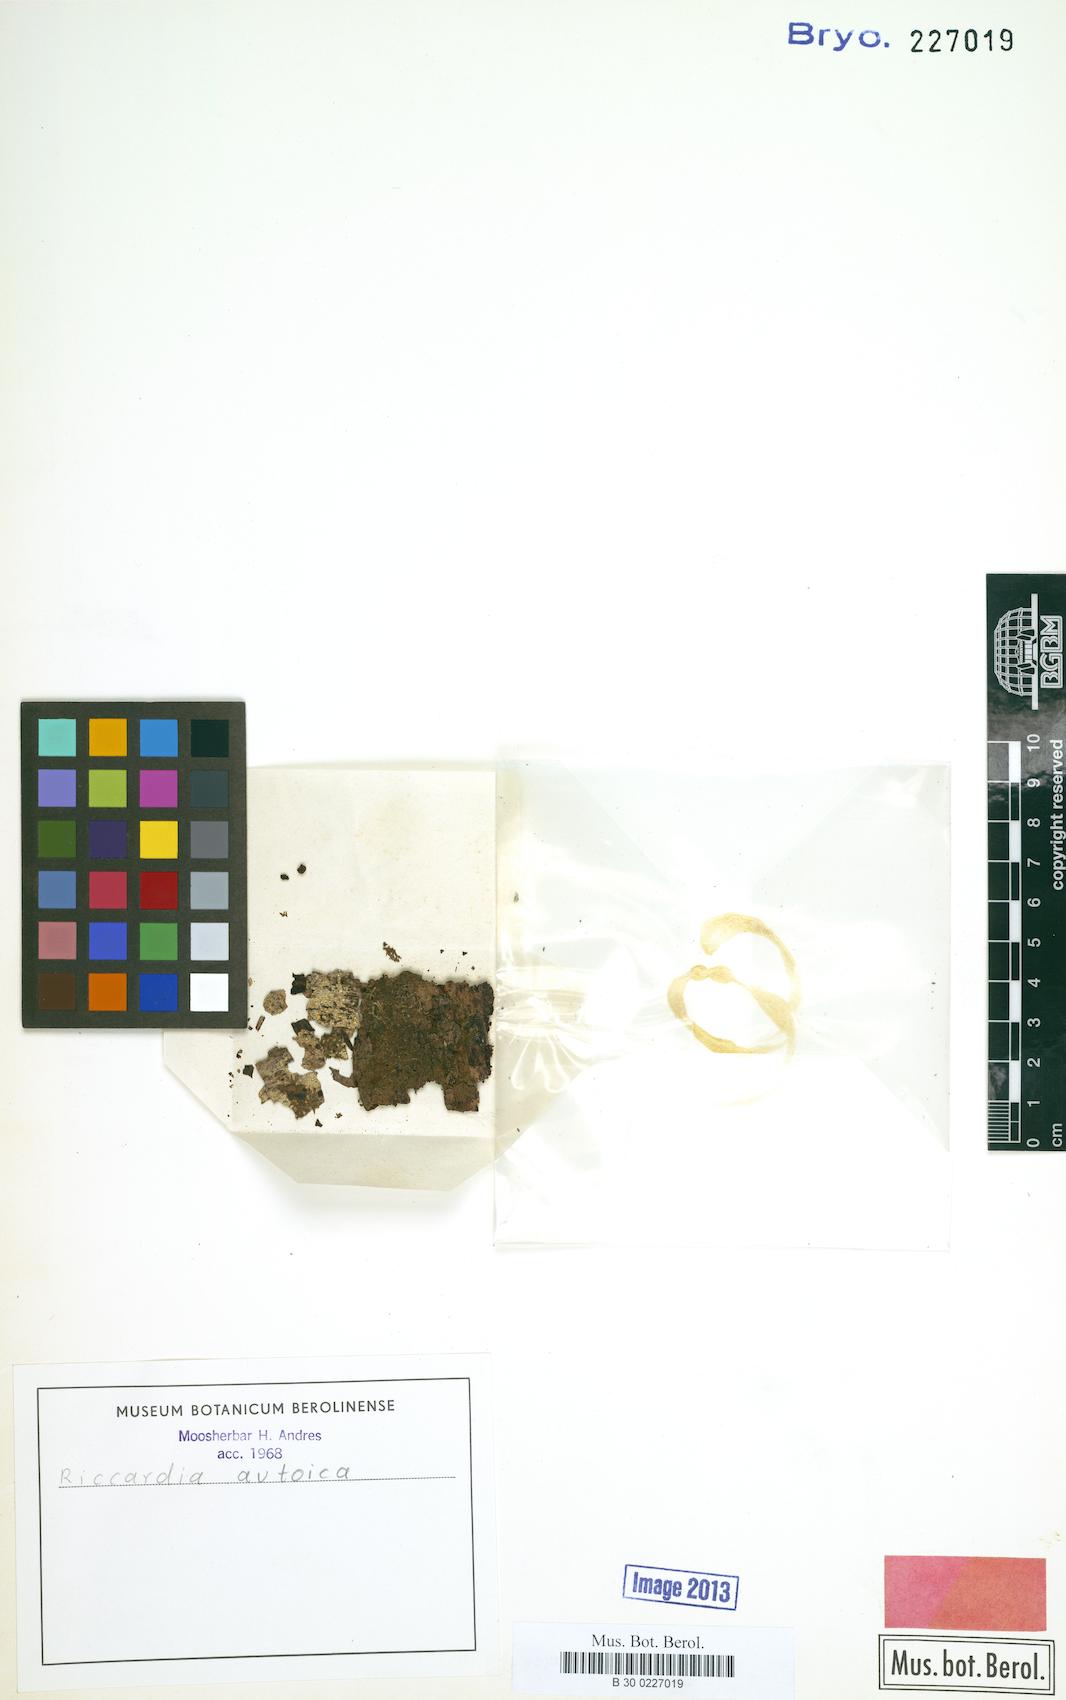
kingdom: Plantae
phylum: Marchantiophyta
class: Jungermanniopsida
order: Metzgeriales
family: Aneuraceae
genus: Riccardia
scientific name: Riccardia autoica
